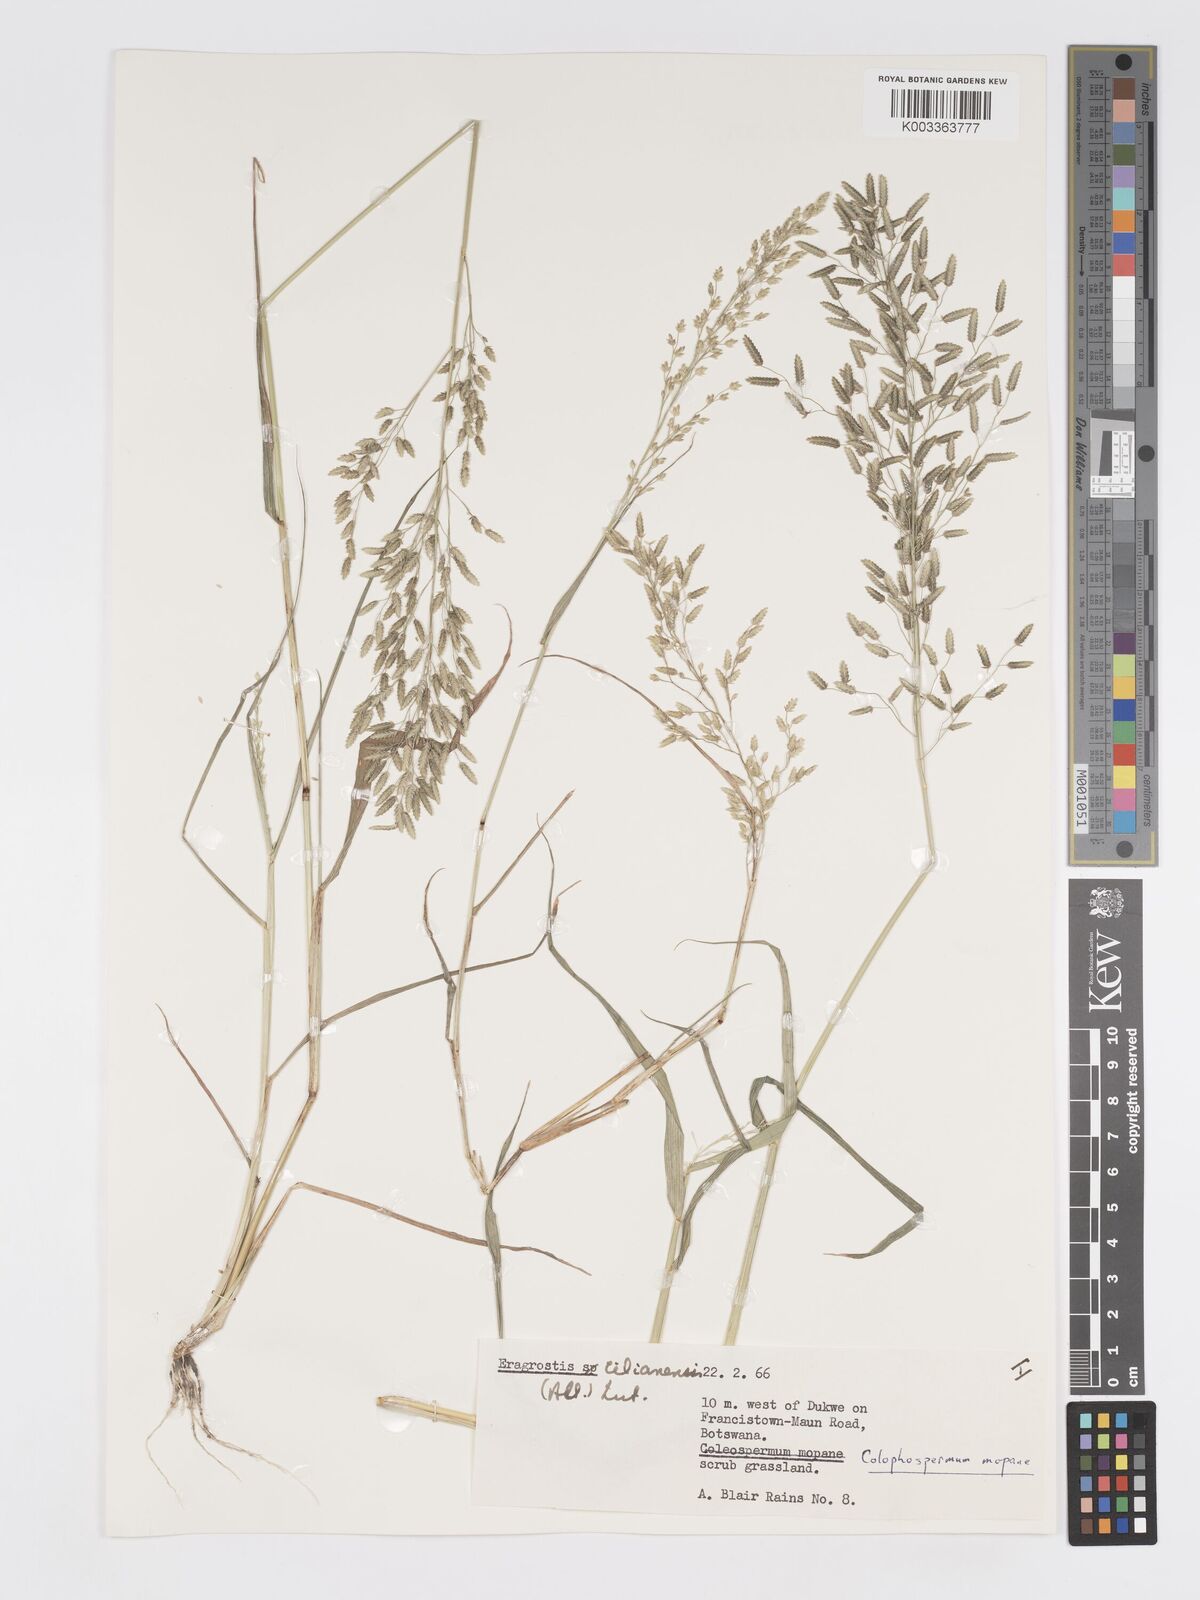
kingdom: Plantae
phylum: Tracheophyta
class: Liliopsida
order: Poales
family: Poaceae
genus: Eragrostis
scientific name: Eragrostis cilianensis
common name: Stinkgrass
